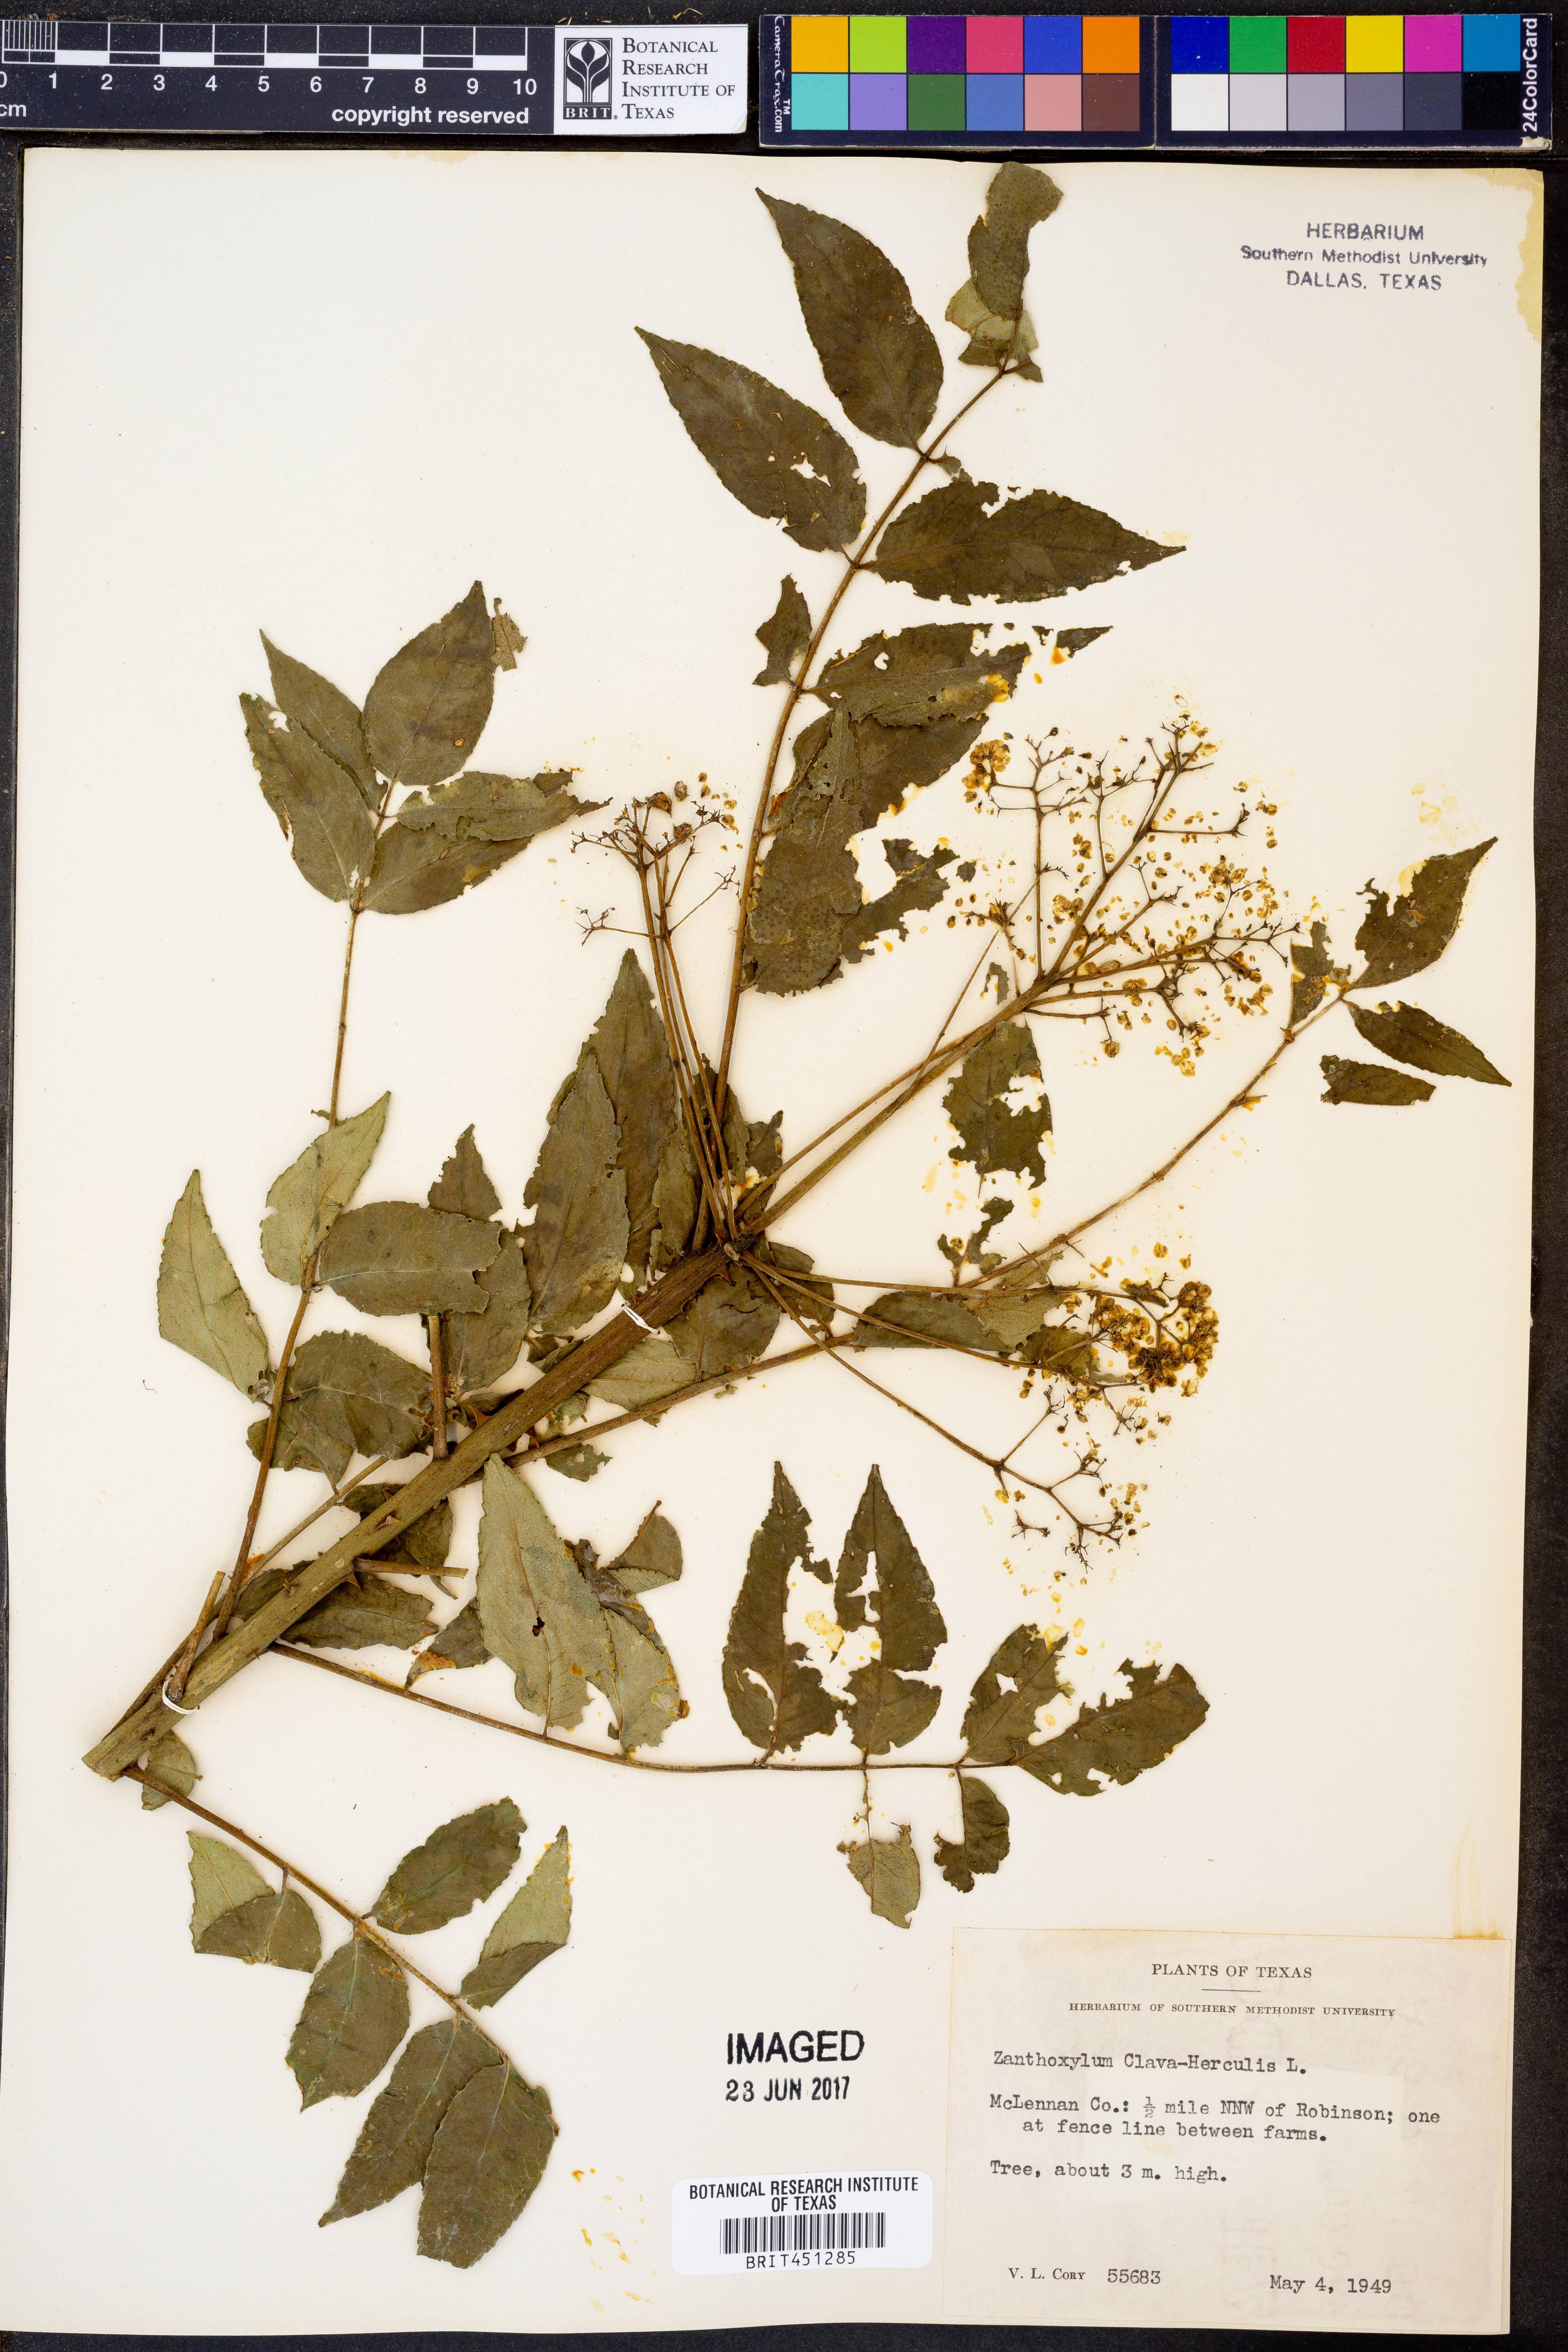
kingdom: Plantae
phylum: Tracheophyta
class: Magnoliopsida
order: Sapindales
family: Rutaceae
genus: Zanthoxylum
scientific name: Zanthoxylum avicennae
